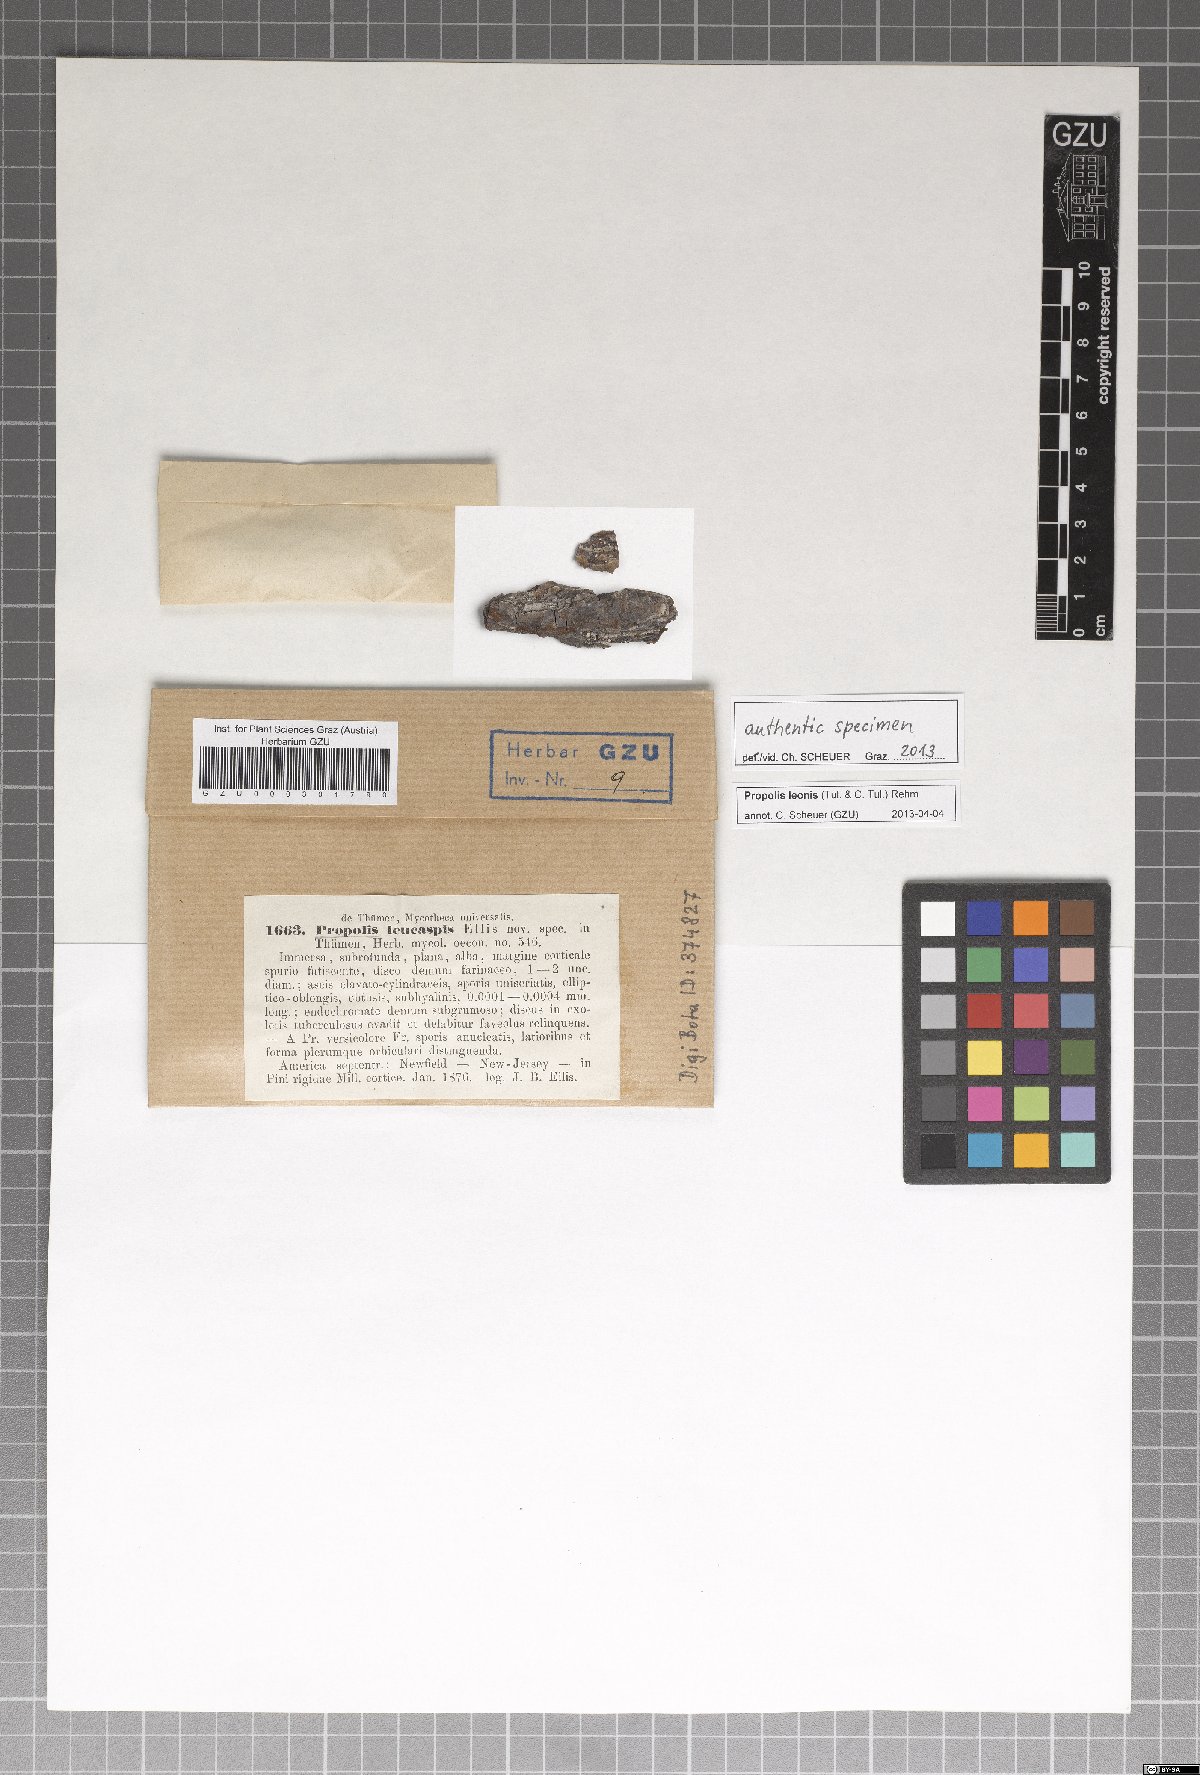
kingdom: Fungi
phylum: Ascomycota
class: Leotiomycetes
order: Chaetomellales
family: Marthamycetaceae
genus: Propolis
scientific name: Propolis leonis
